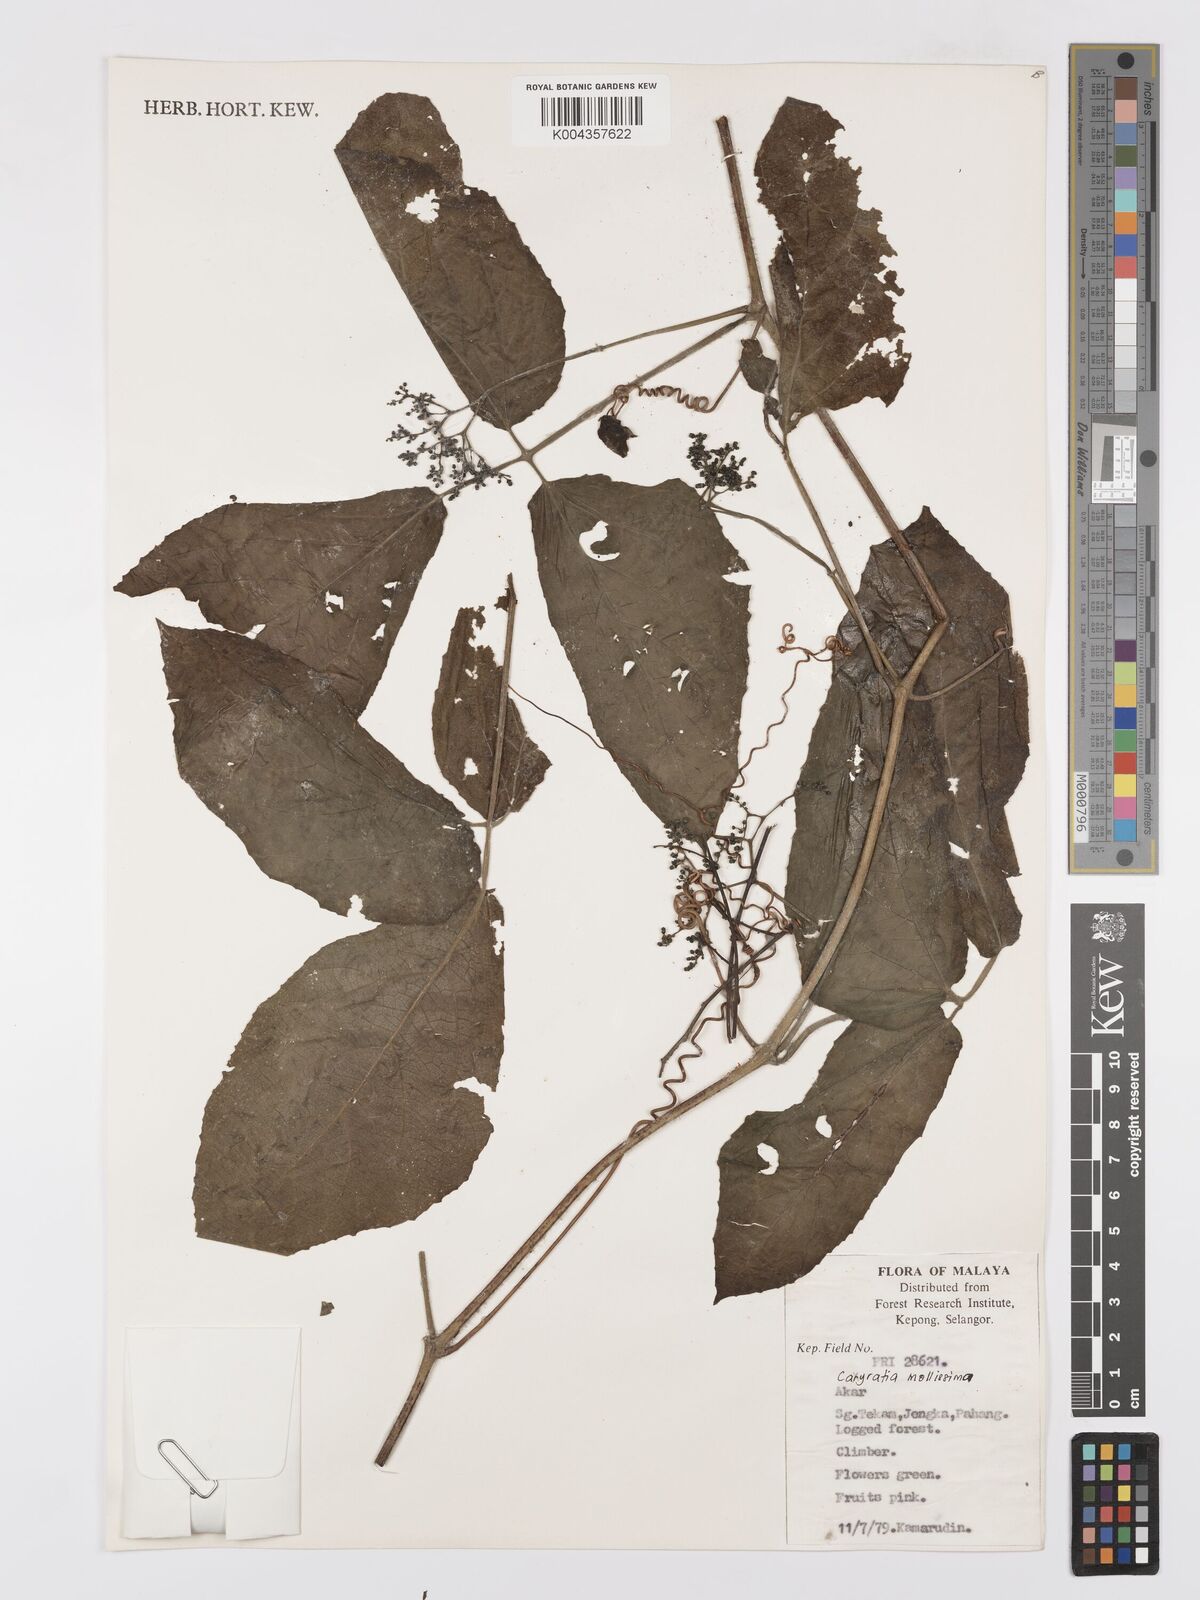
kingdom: Plantae
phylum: Tracheophyta
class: Magnoliopsida
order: Vitales
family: Vitaceae
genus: Cayratia
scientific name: Cayratia mollissima
